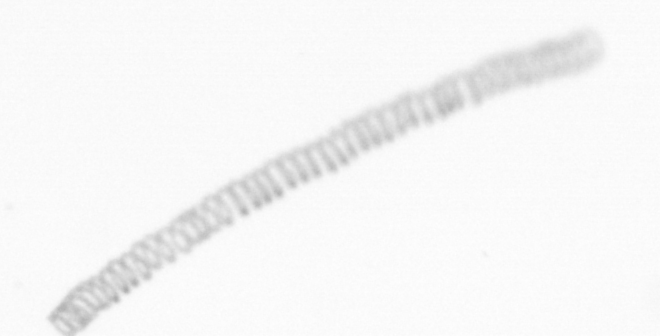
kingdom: Chromista
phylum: Ochrophyta
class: Bacillariophyceae
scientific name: Bacillariophyceae
